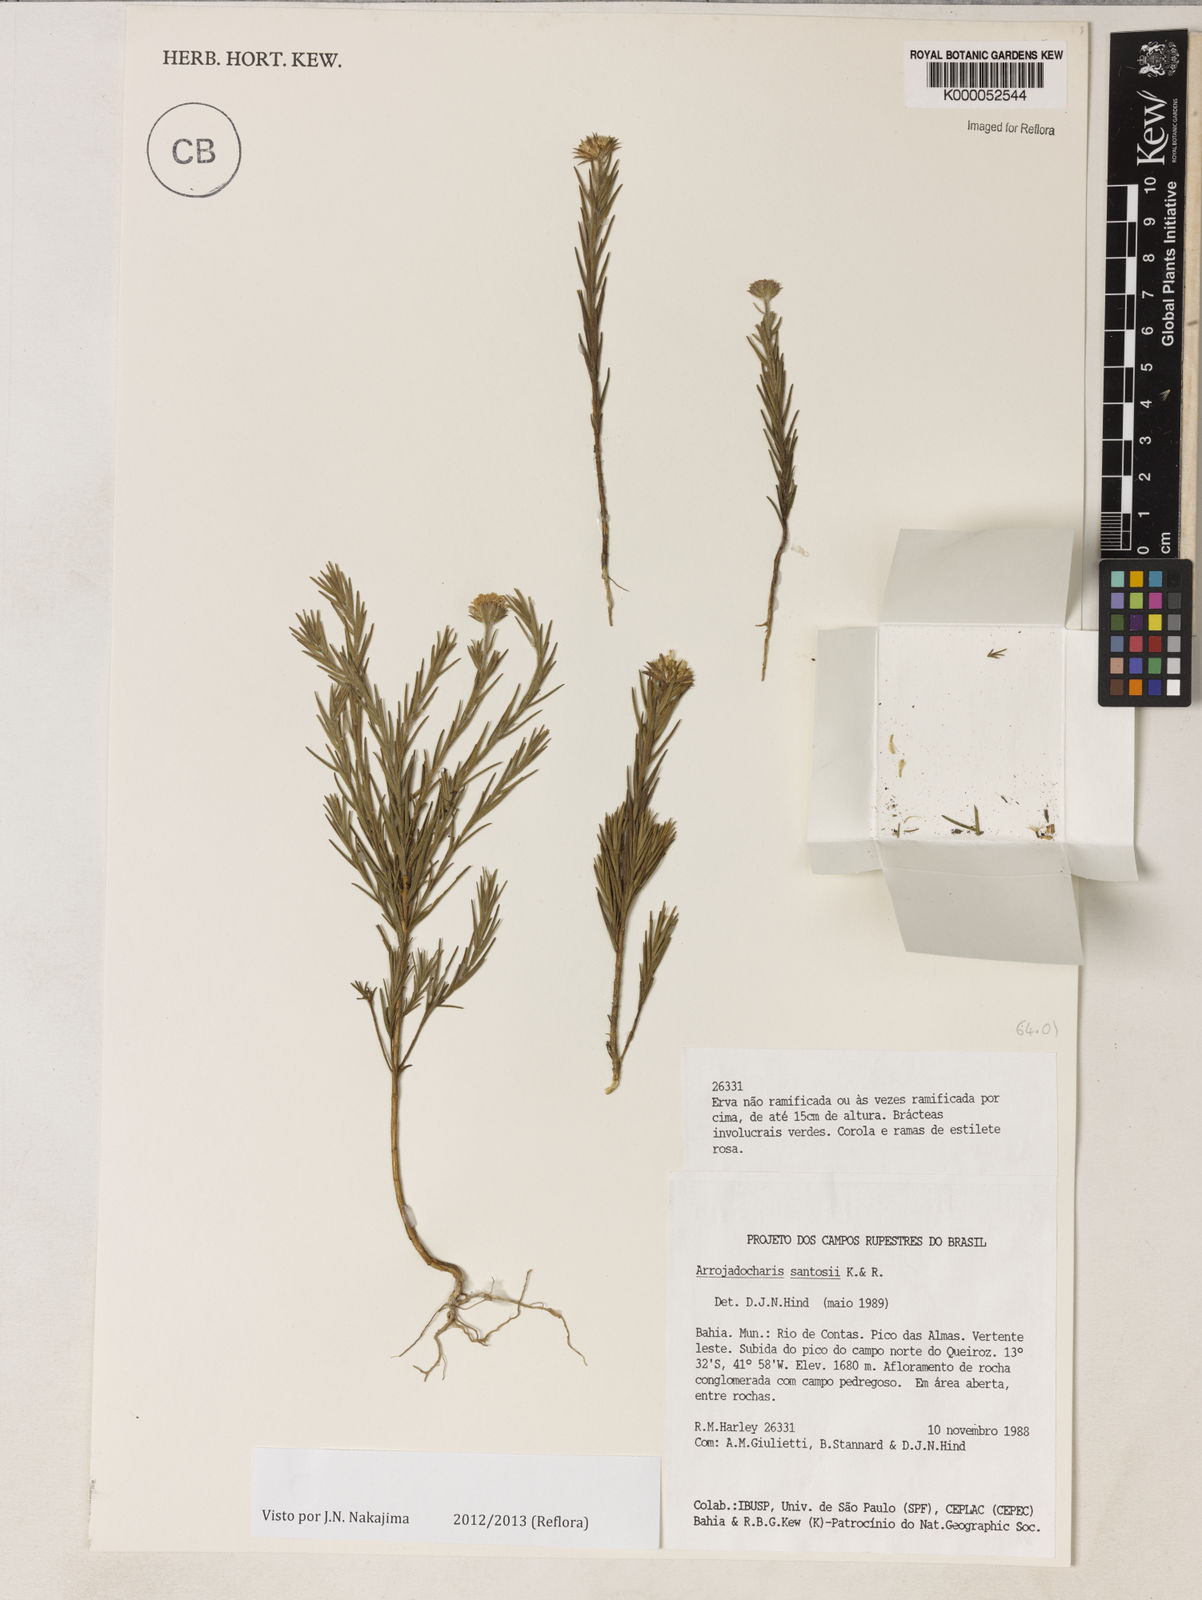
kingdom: Plantae
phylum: Tracheophyta
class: Magnoliopsida
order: Asterales
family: Asteraceae
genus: Arrojadocharis
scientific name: Arrojadocharis santosii
